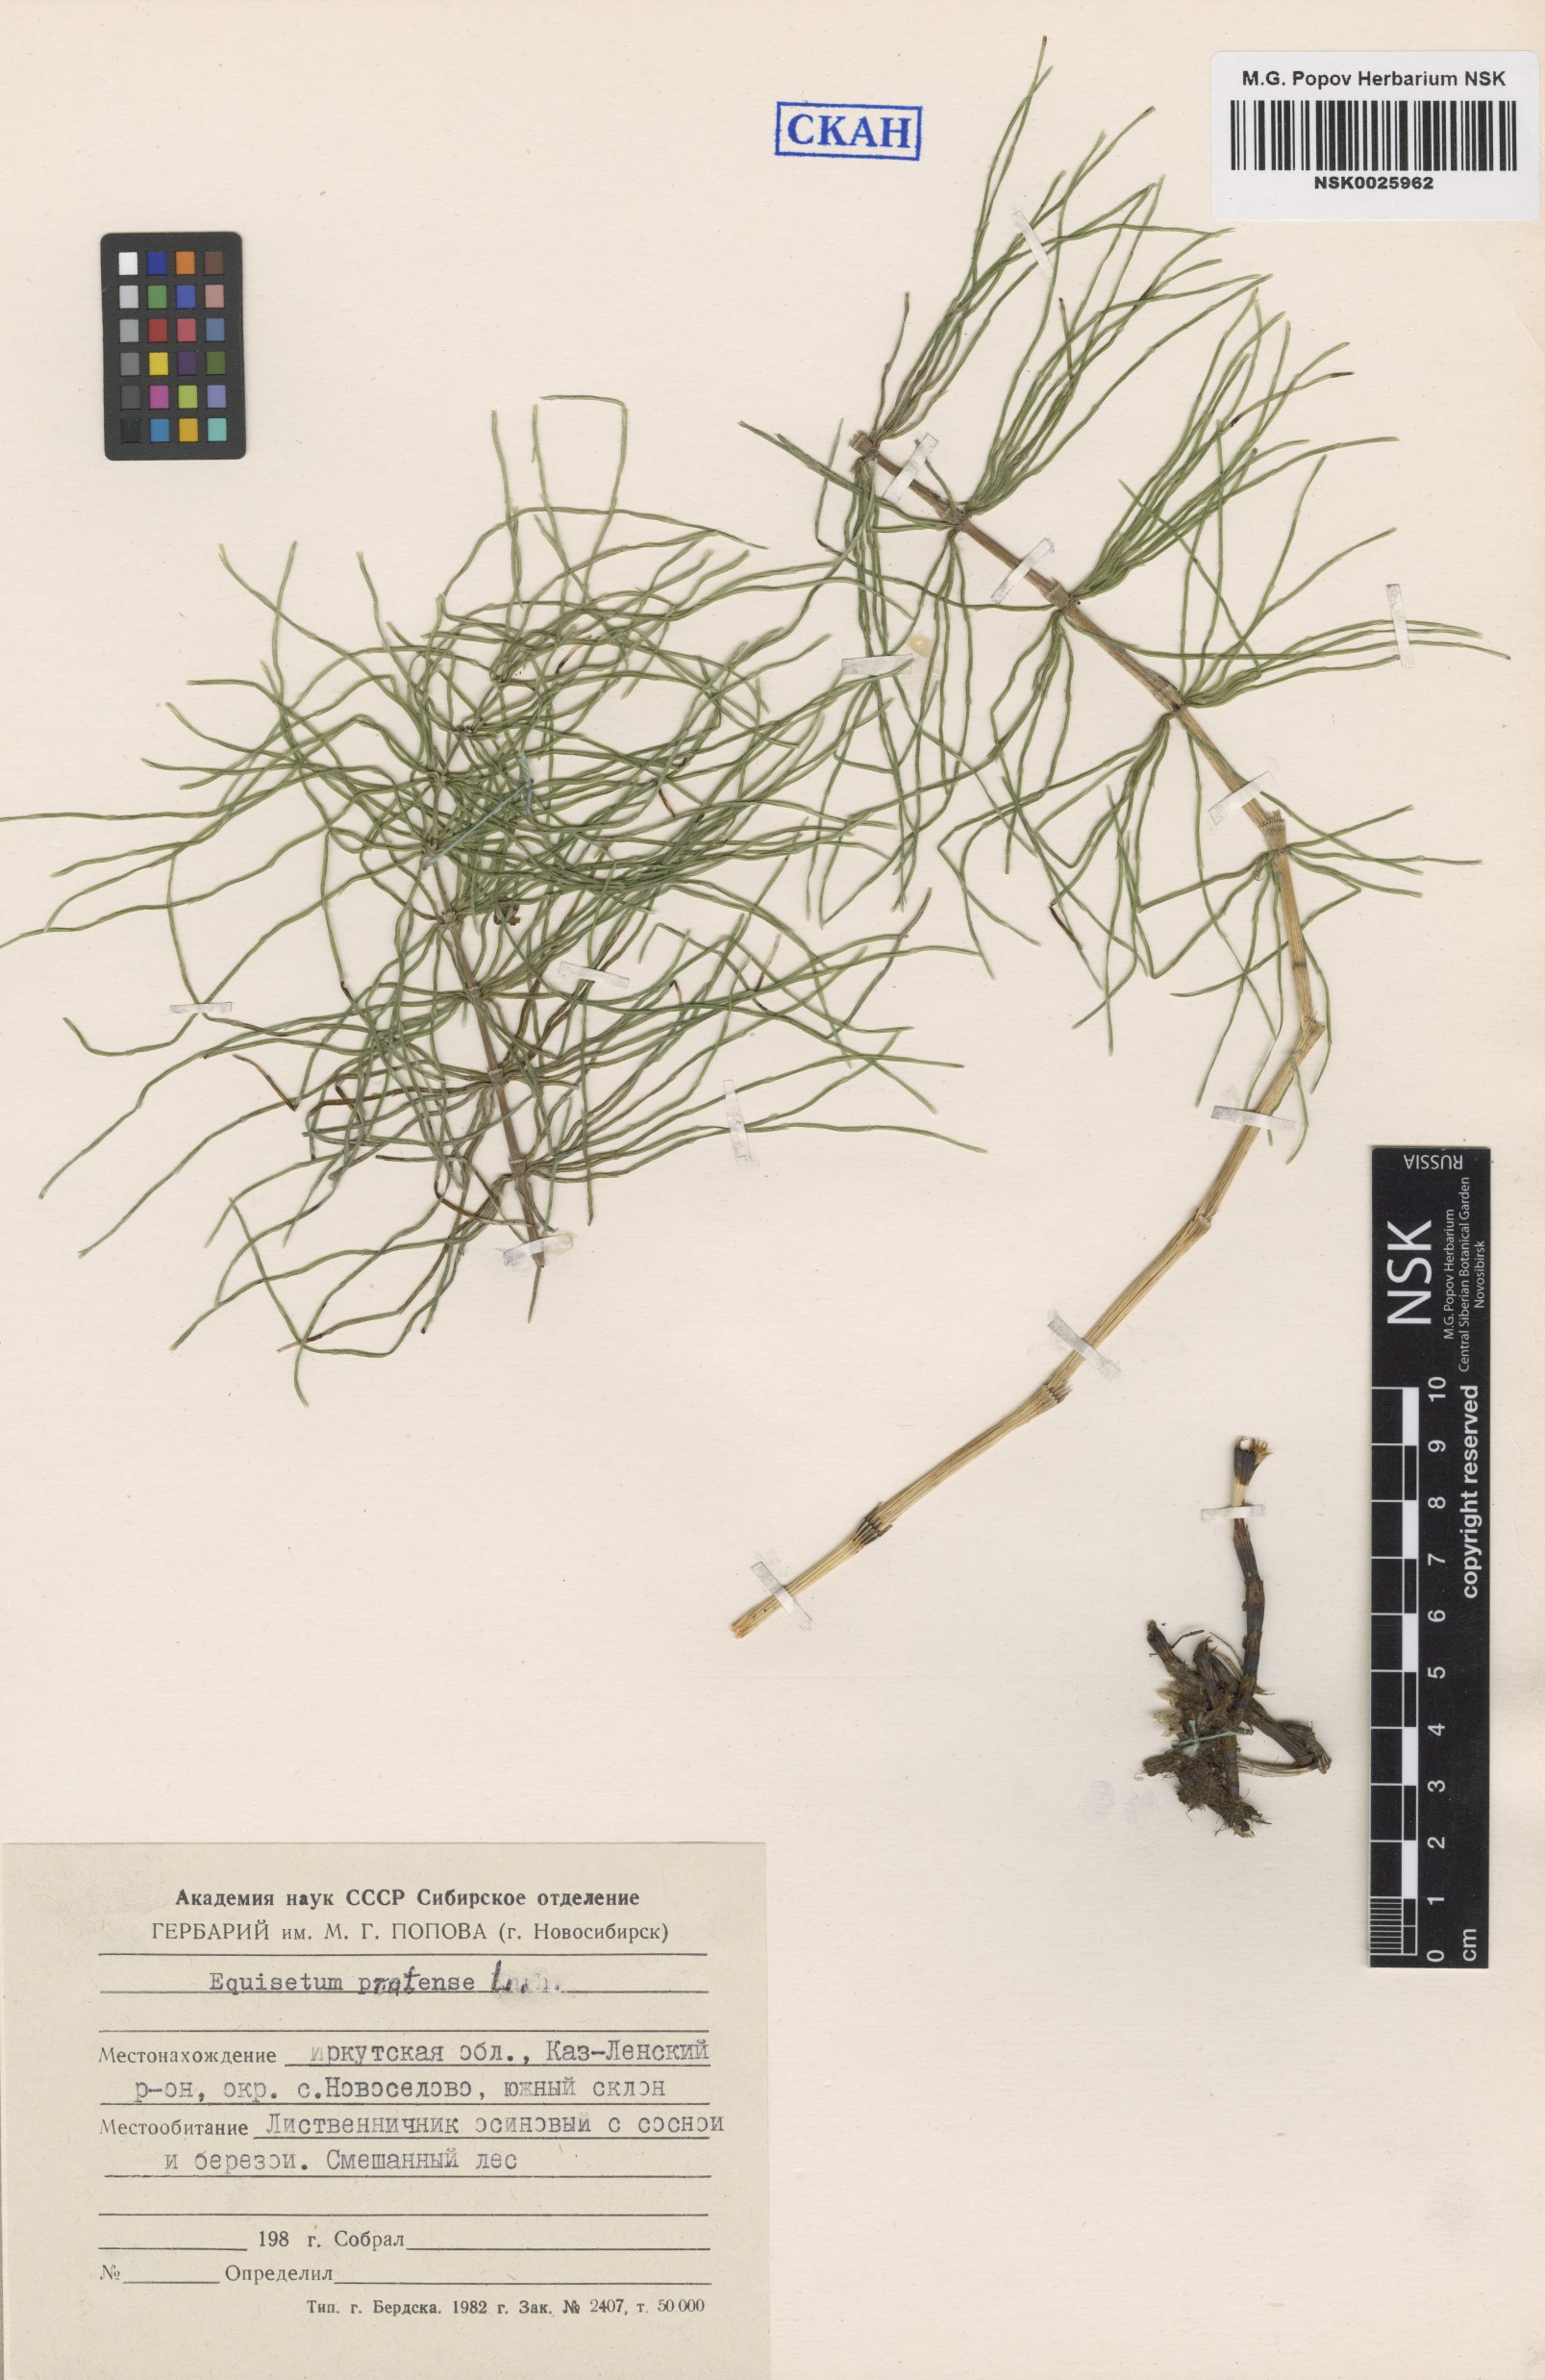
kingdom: Plantae
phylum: Tracheophyta
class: Polypodiopsida
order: Equisetales
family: Equisetaceae
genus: Equisetum
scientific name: Equisetum pratense
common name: Meadow horsetail
